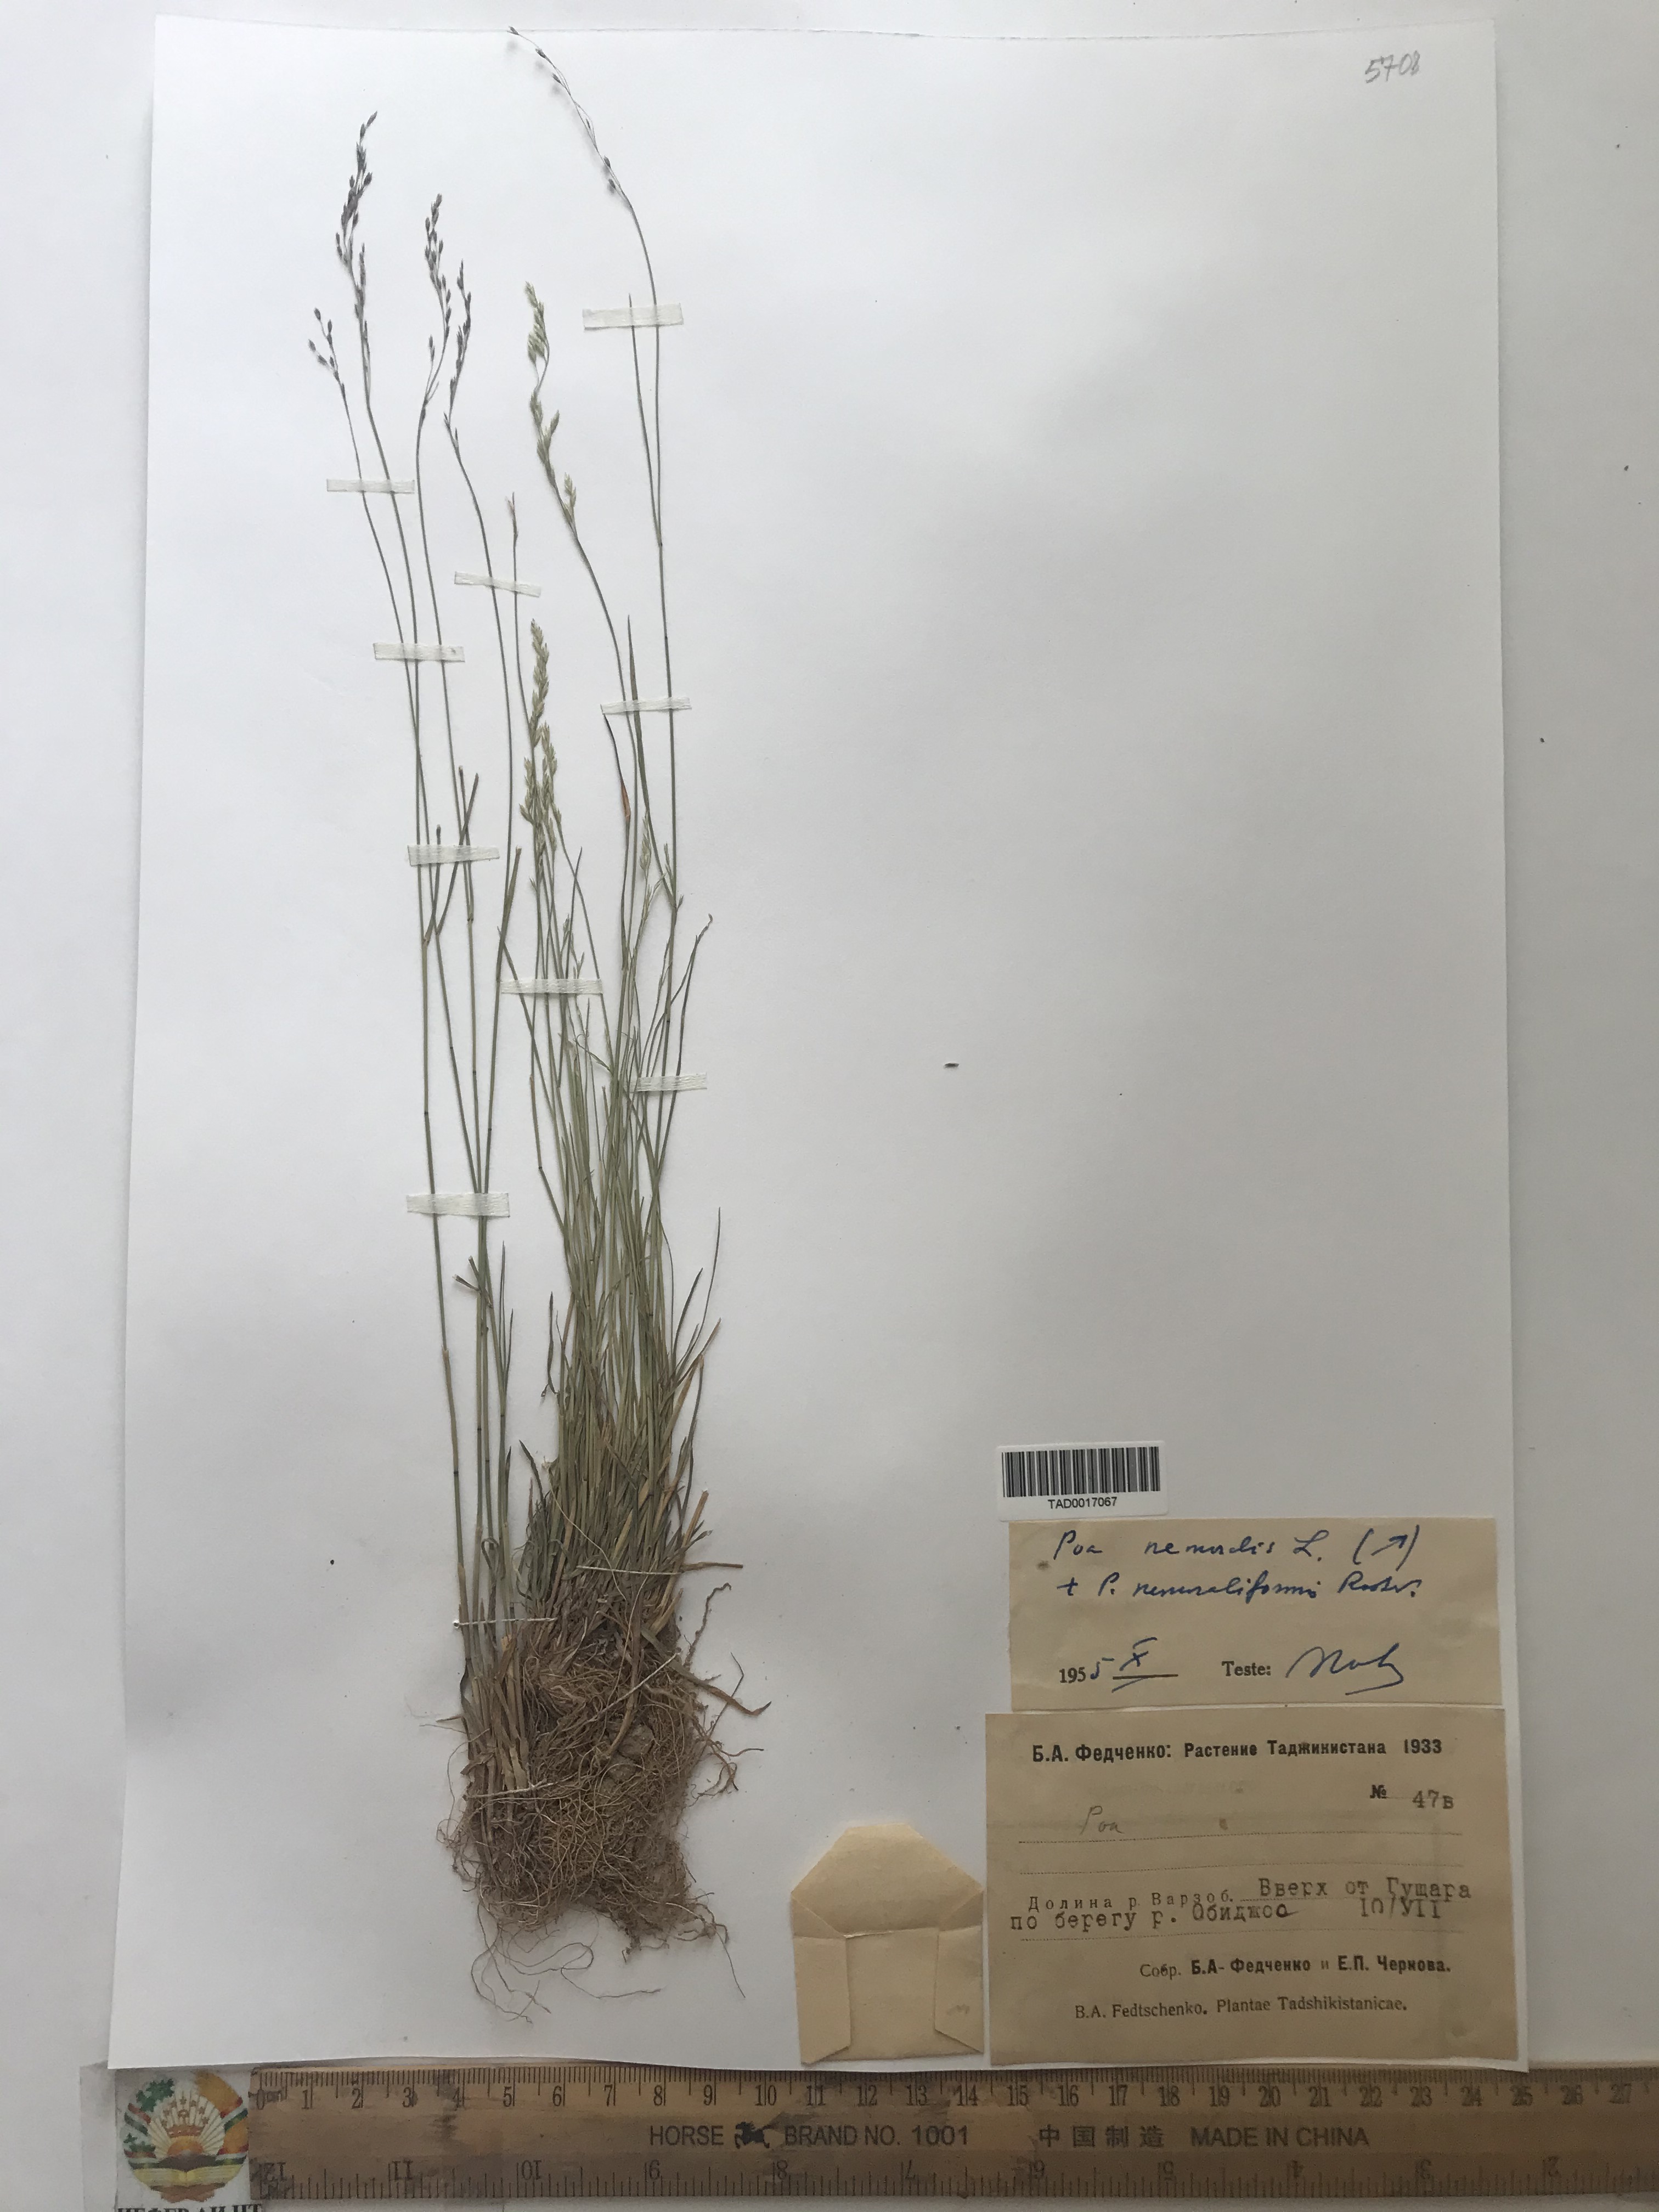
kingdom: Plantae
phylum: Tracheophyta
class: Liliopsida
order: Poales
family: Poaceae
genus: Poa
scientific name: Poa nemoralis
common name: Wood bluegrass
